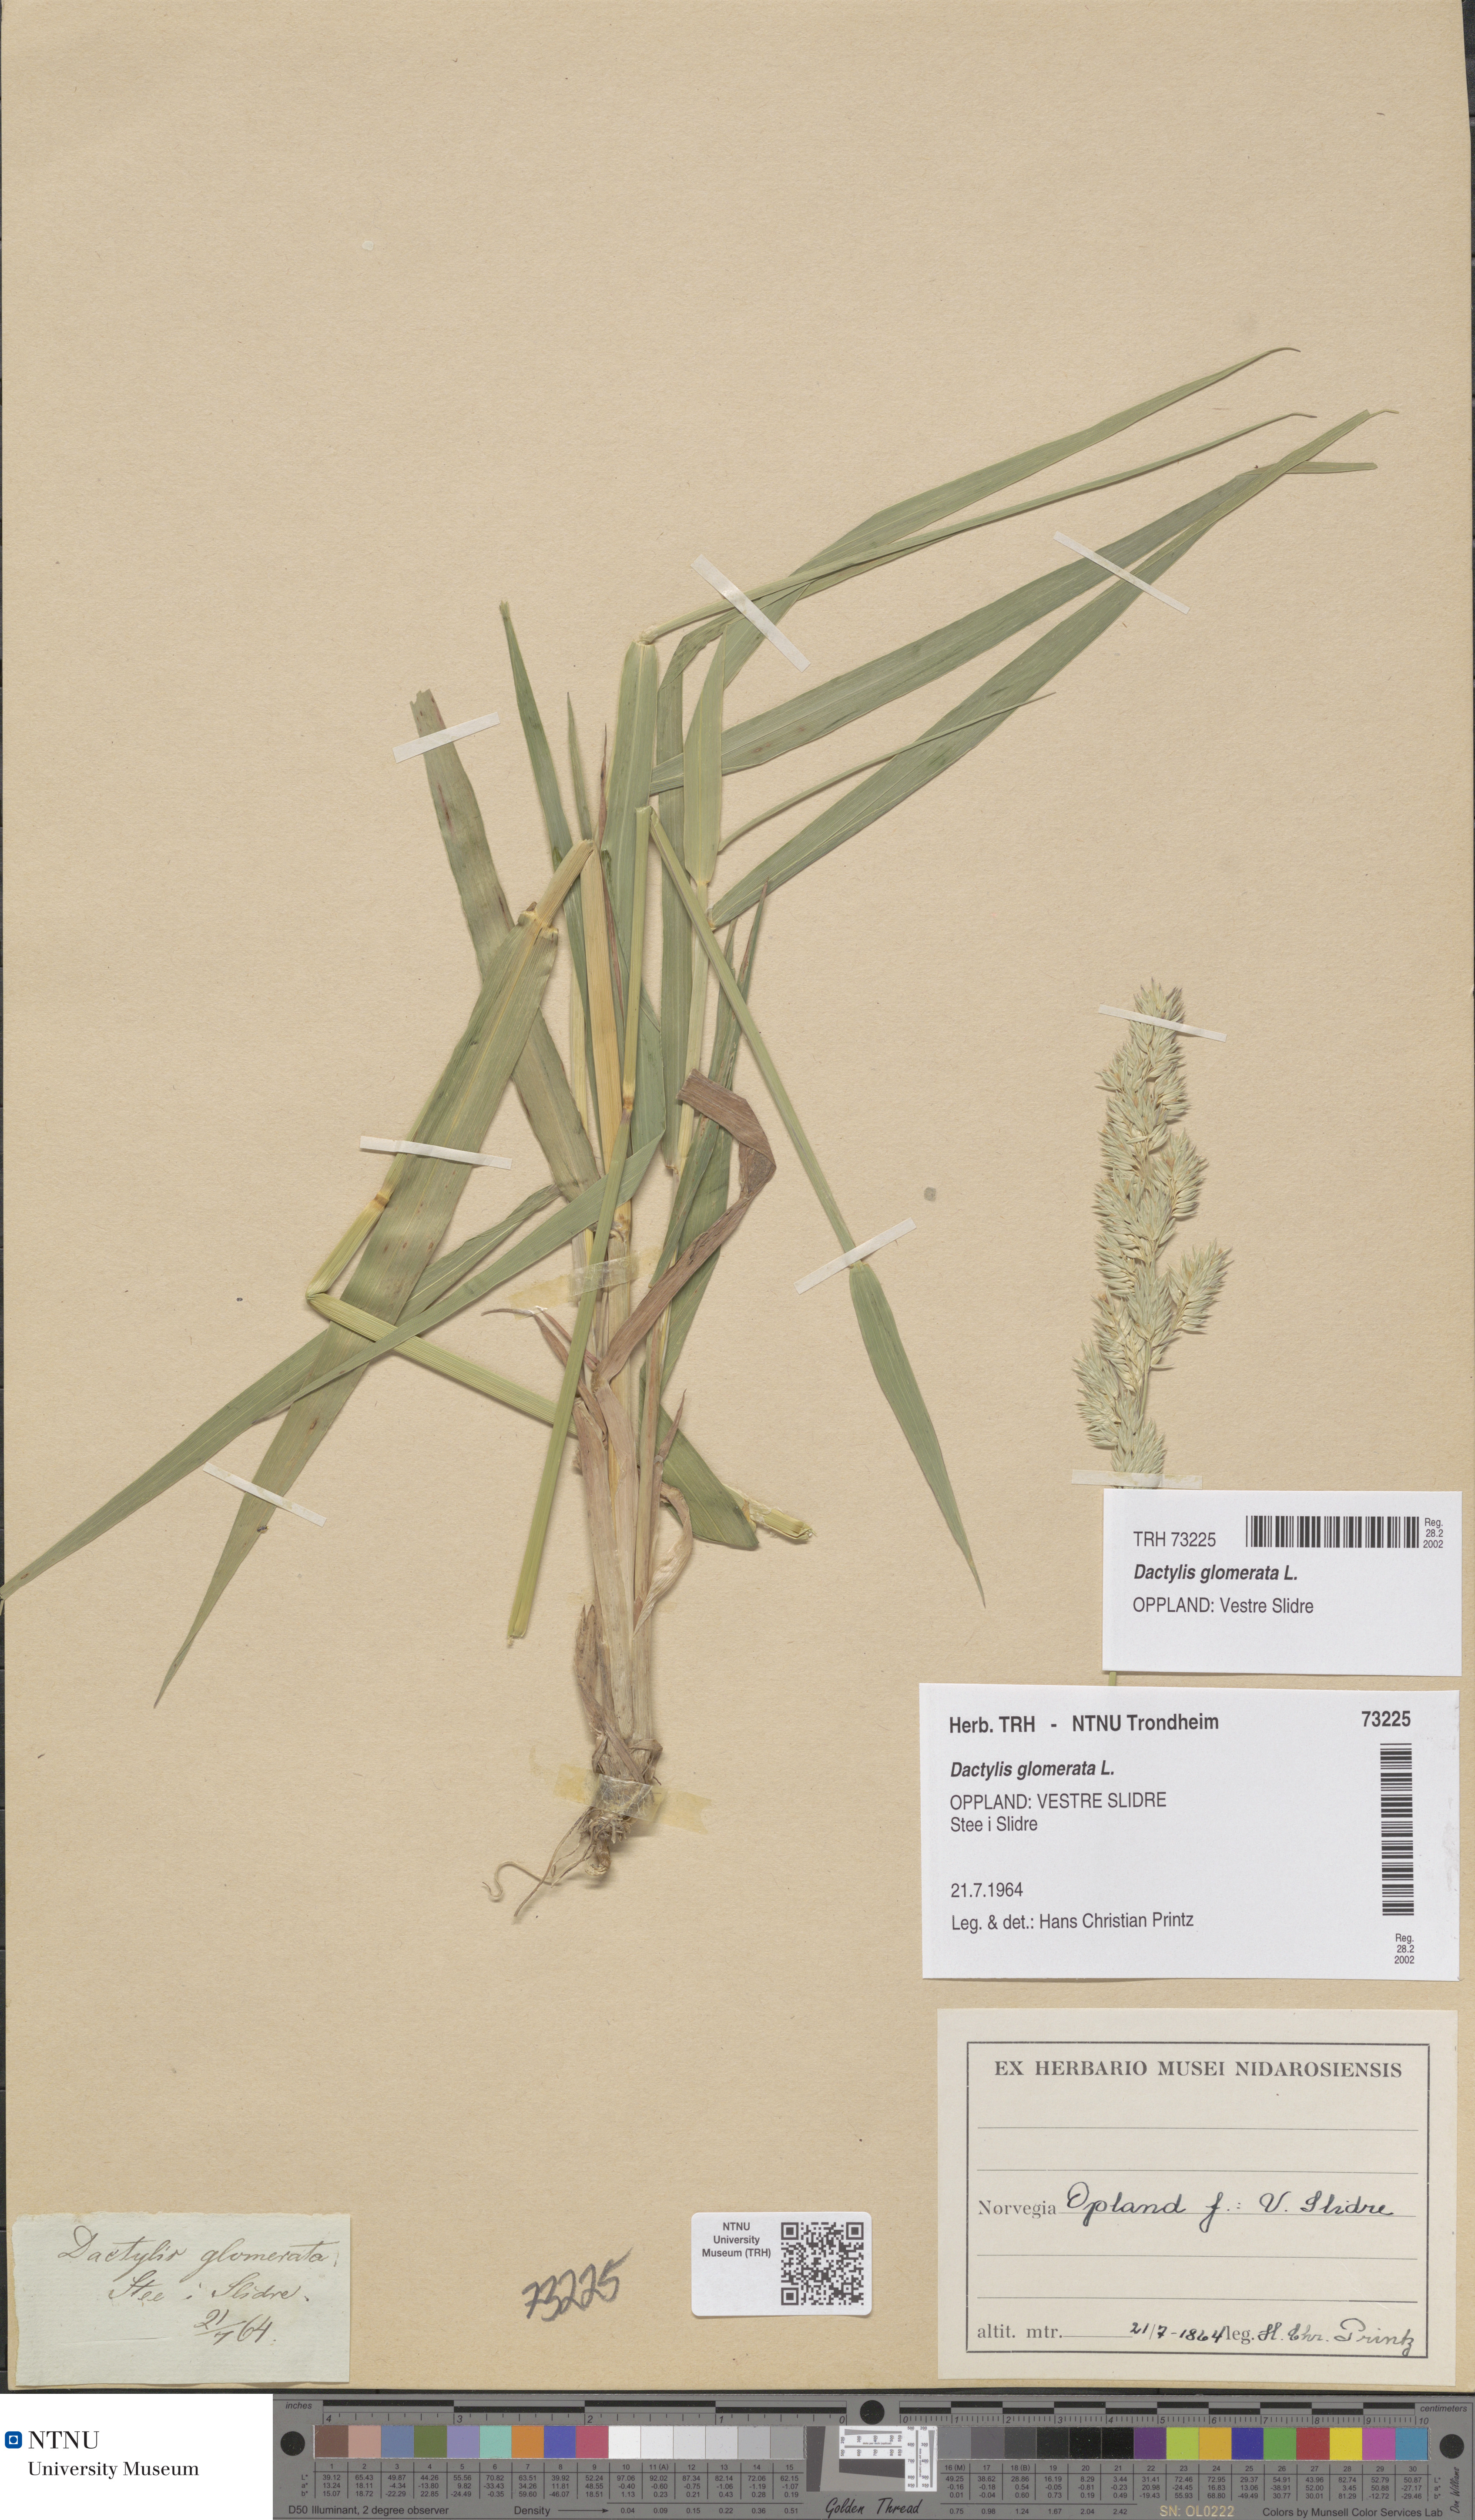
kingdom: Plantae
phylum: Tracheophyta
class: Liliopsida
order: Poales
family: Poaceae
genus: Dactylis
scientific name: Dactylis glomerata
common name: Orchardgrass
